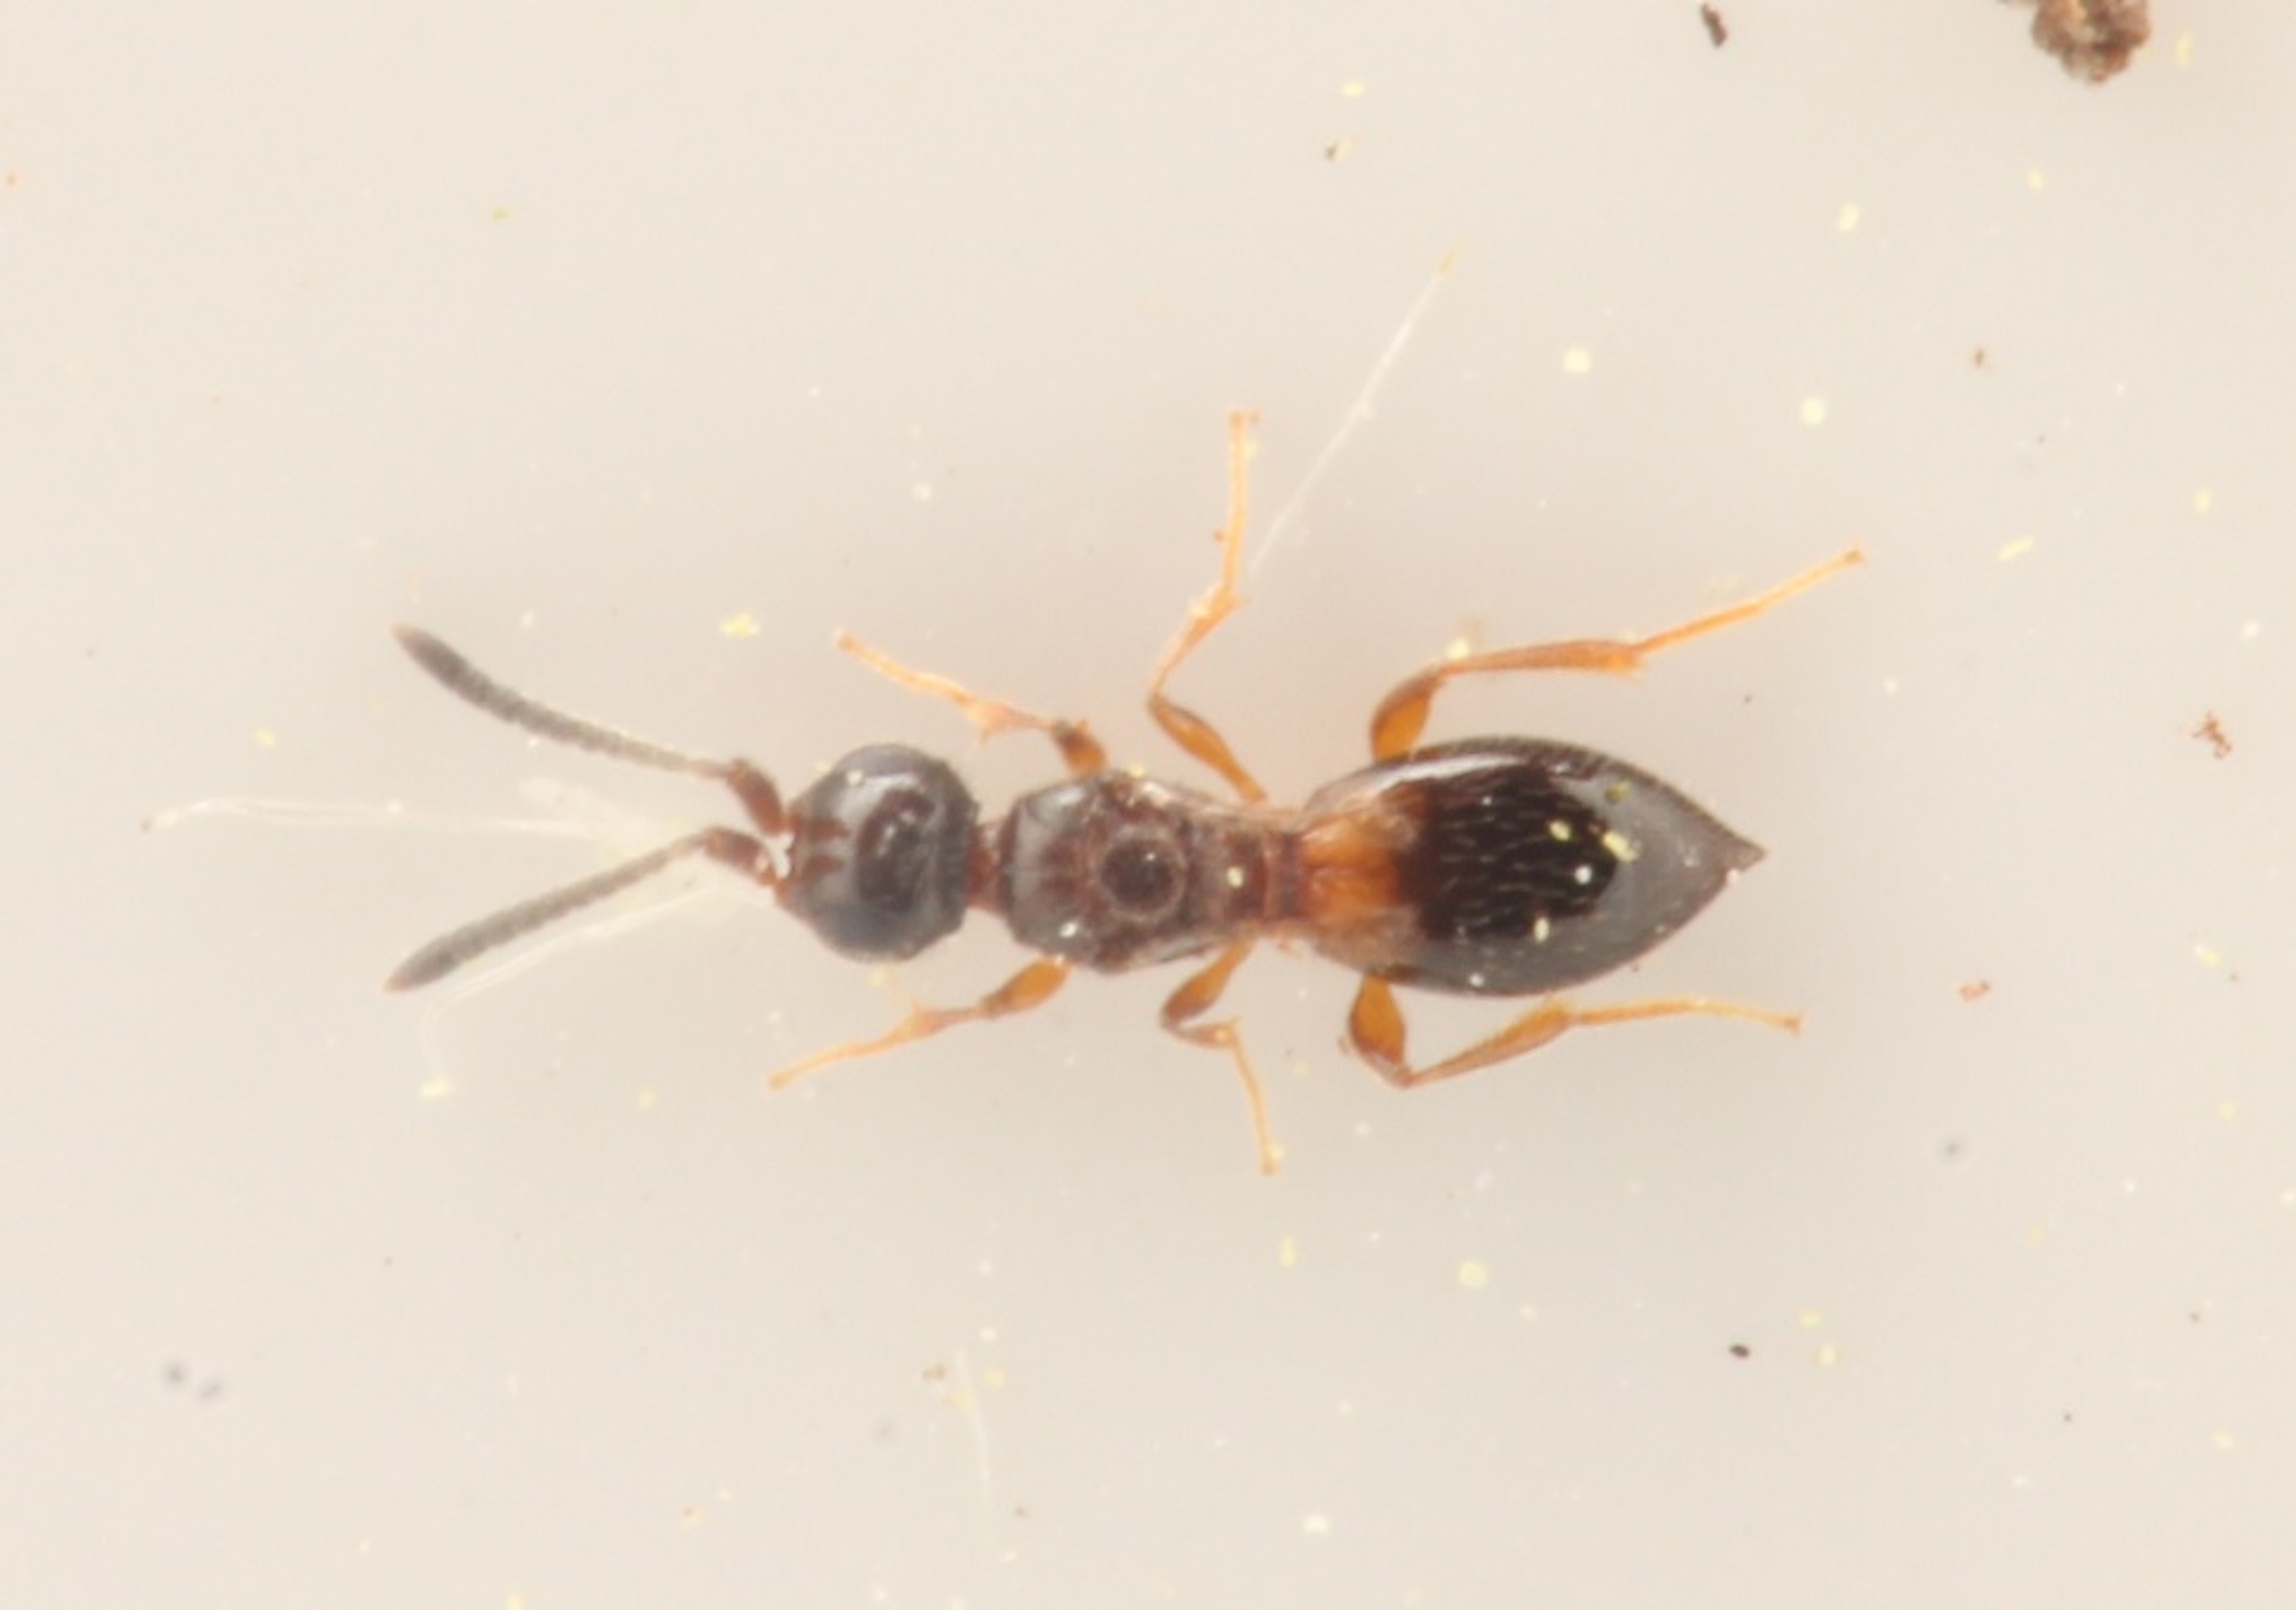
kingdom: Animalia
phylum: Arthropoda
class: Insecta
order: Hymenoptera
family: Megaspilidae
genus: Conostigmus
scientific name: Conostigmus
